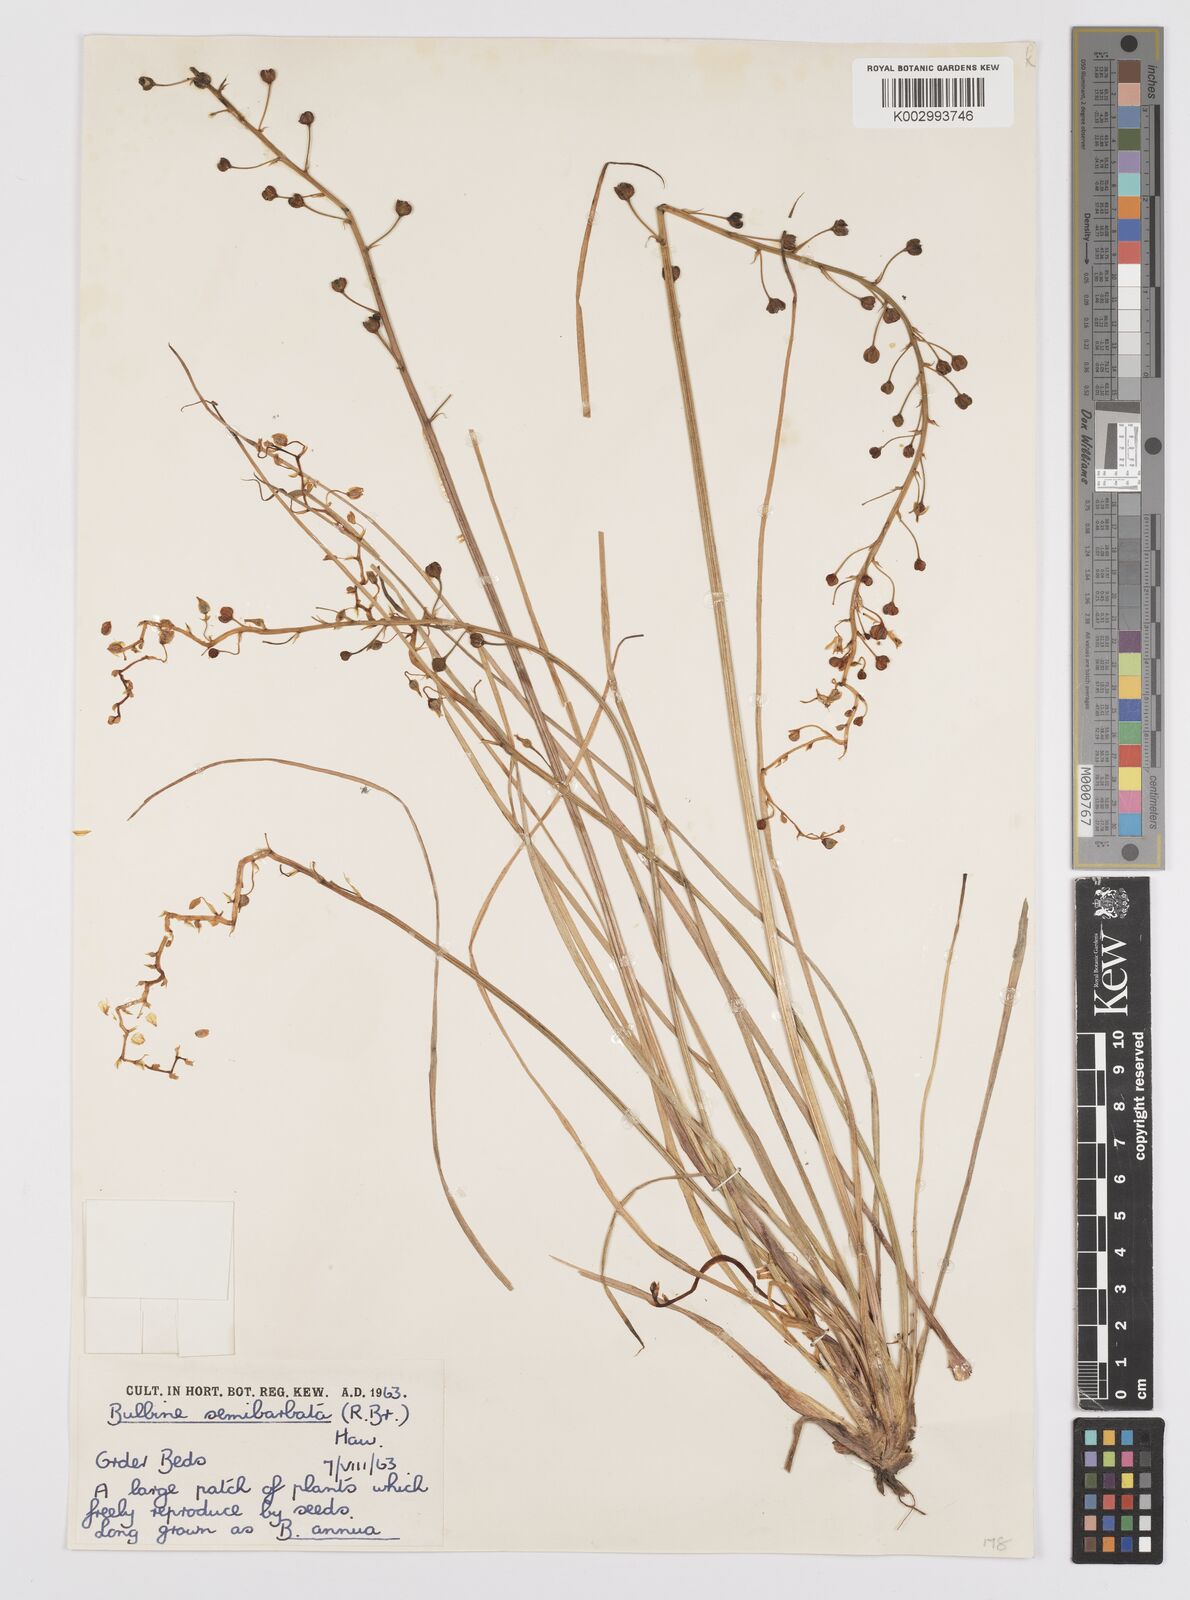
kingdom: Plantae
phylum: Tracheophyta
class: Liliopsida
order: Asparagales
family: Asphodelaceae
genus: Bulbine
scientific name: Bulbine semibarbata
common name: Leek lily
